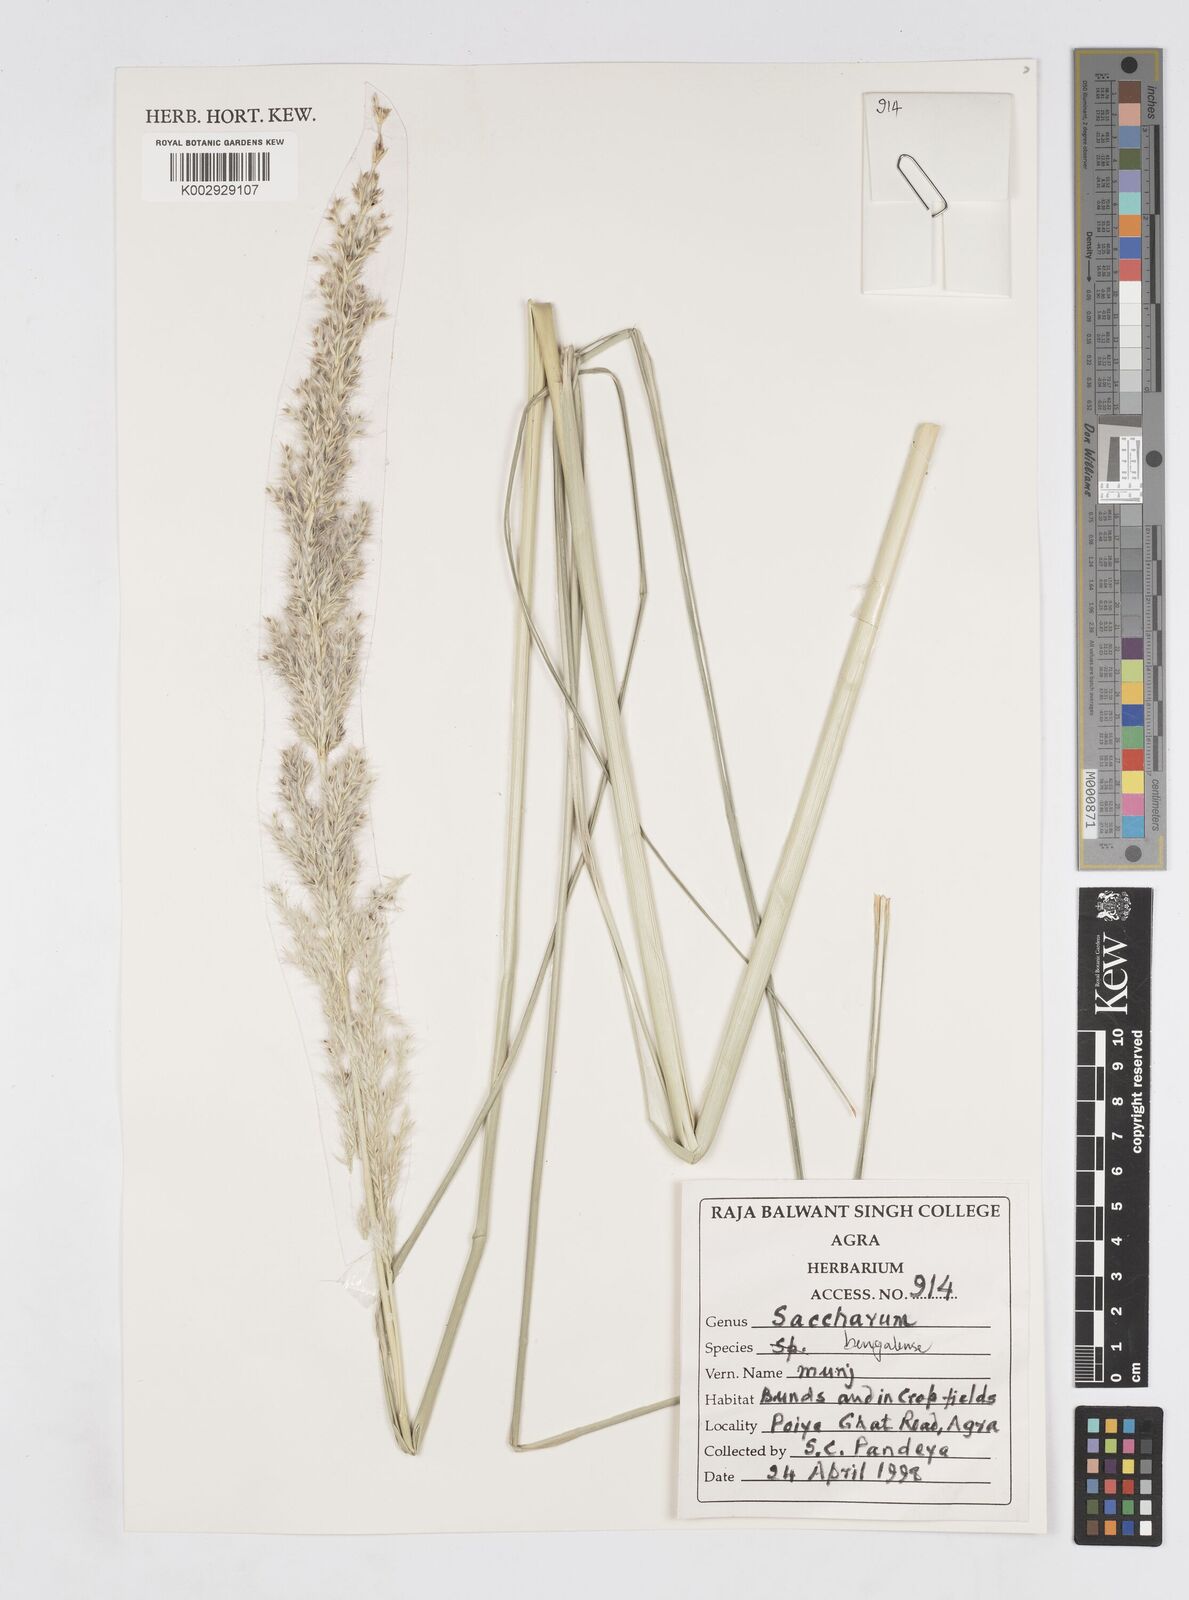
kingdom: Plantae
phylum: Tracheophyta
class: Liliopsida
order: Poales
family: Poaceae
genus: Saccharum
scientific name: Saccharum
